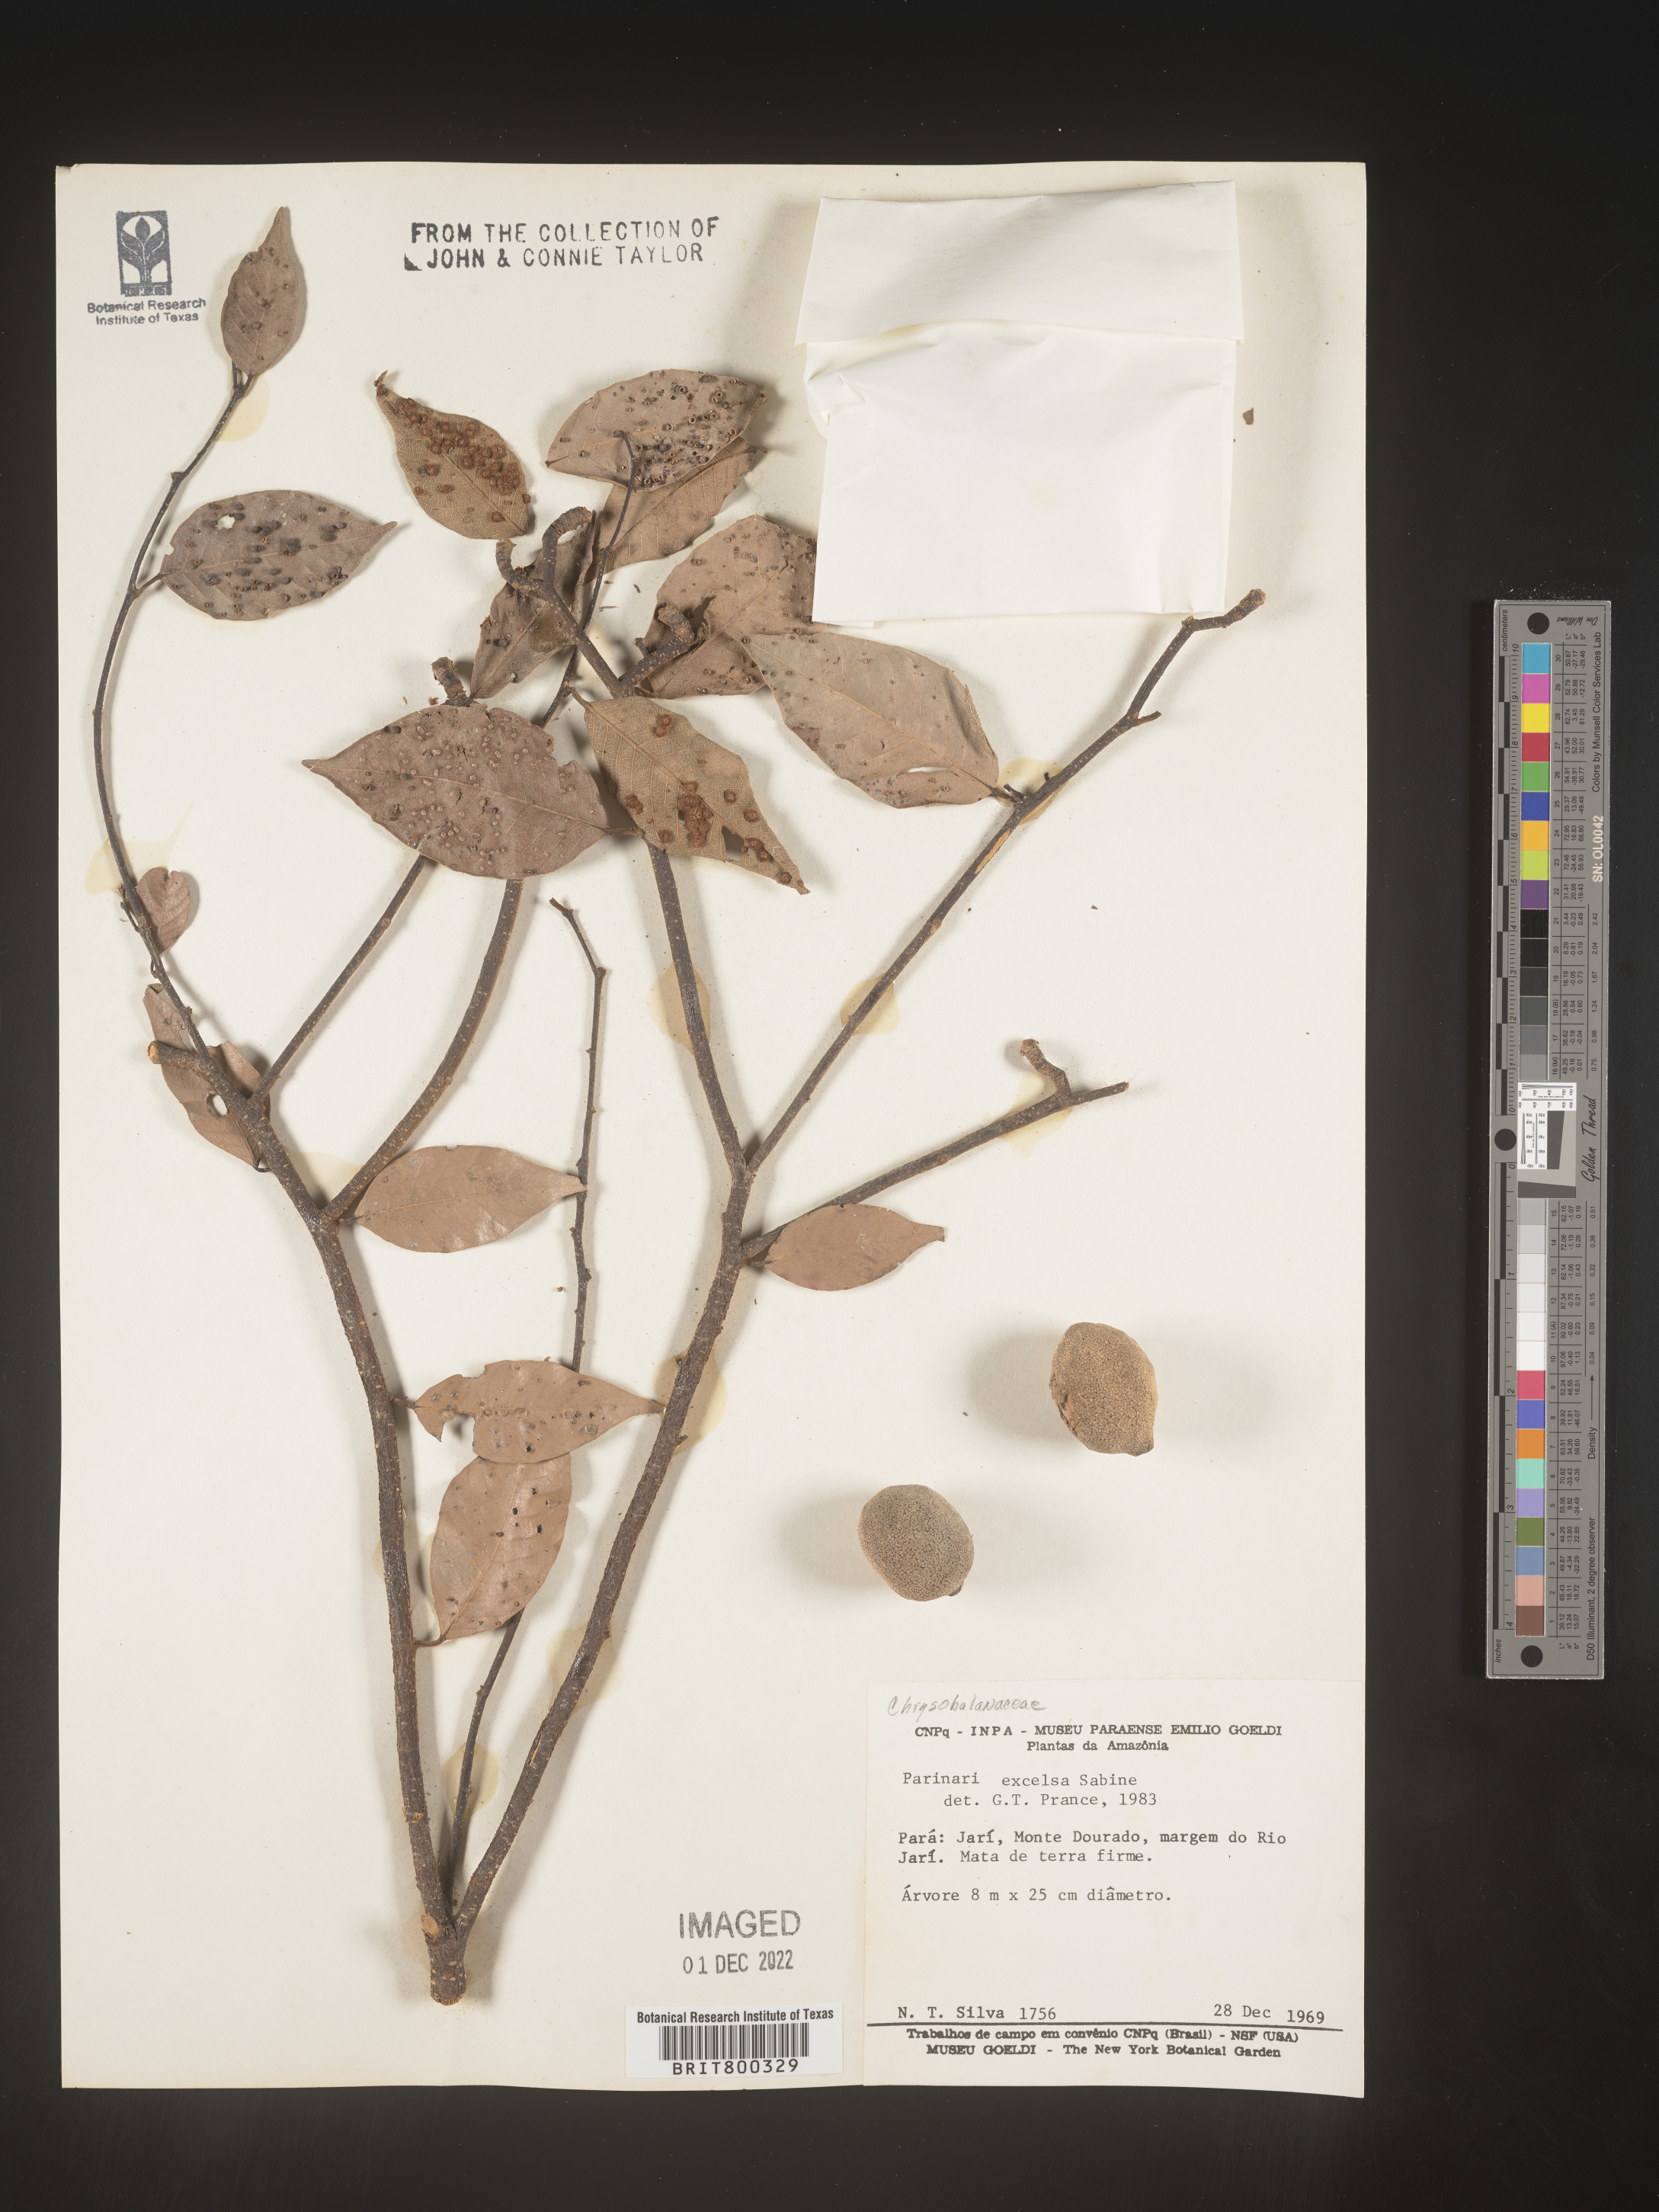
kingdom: Plantae
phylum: Tracheophyta
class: Magnoliopsida
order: Malpighiales
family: Chrysobalanaceae
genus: Parinari
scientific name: Parinari
